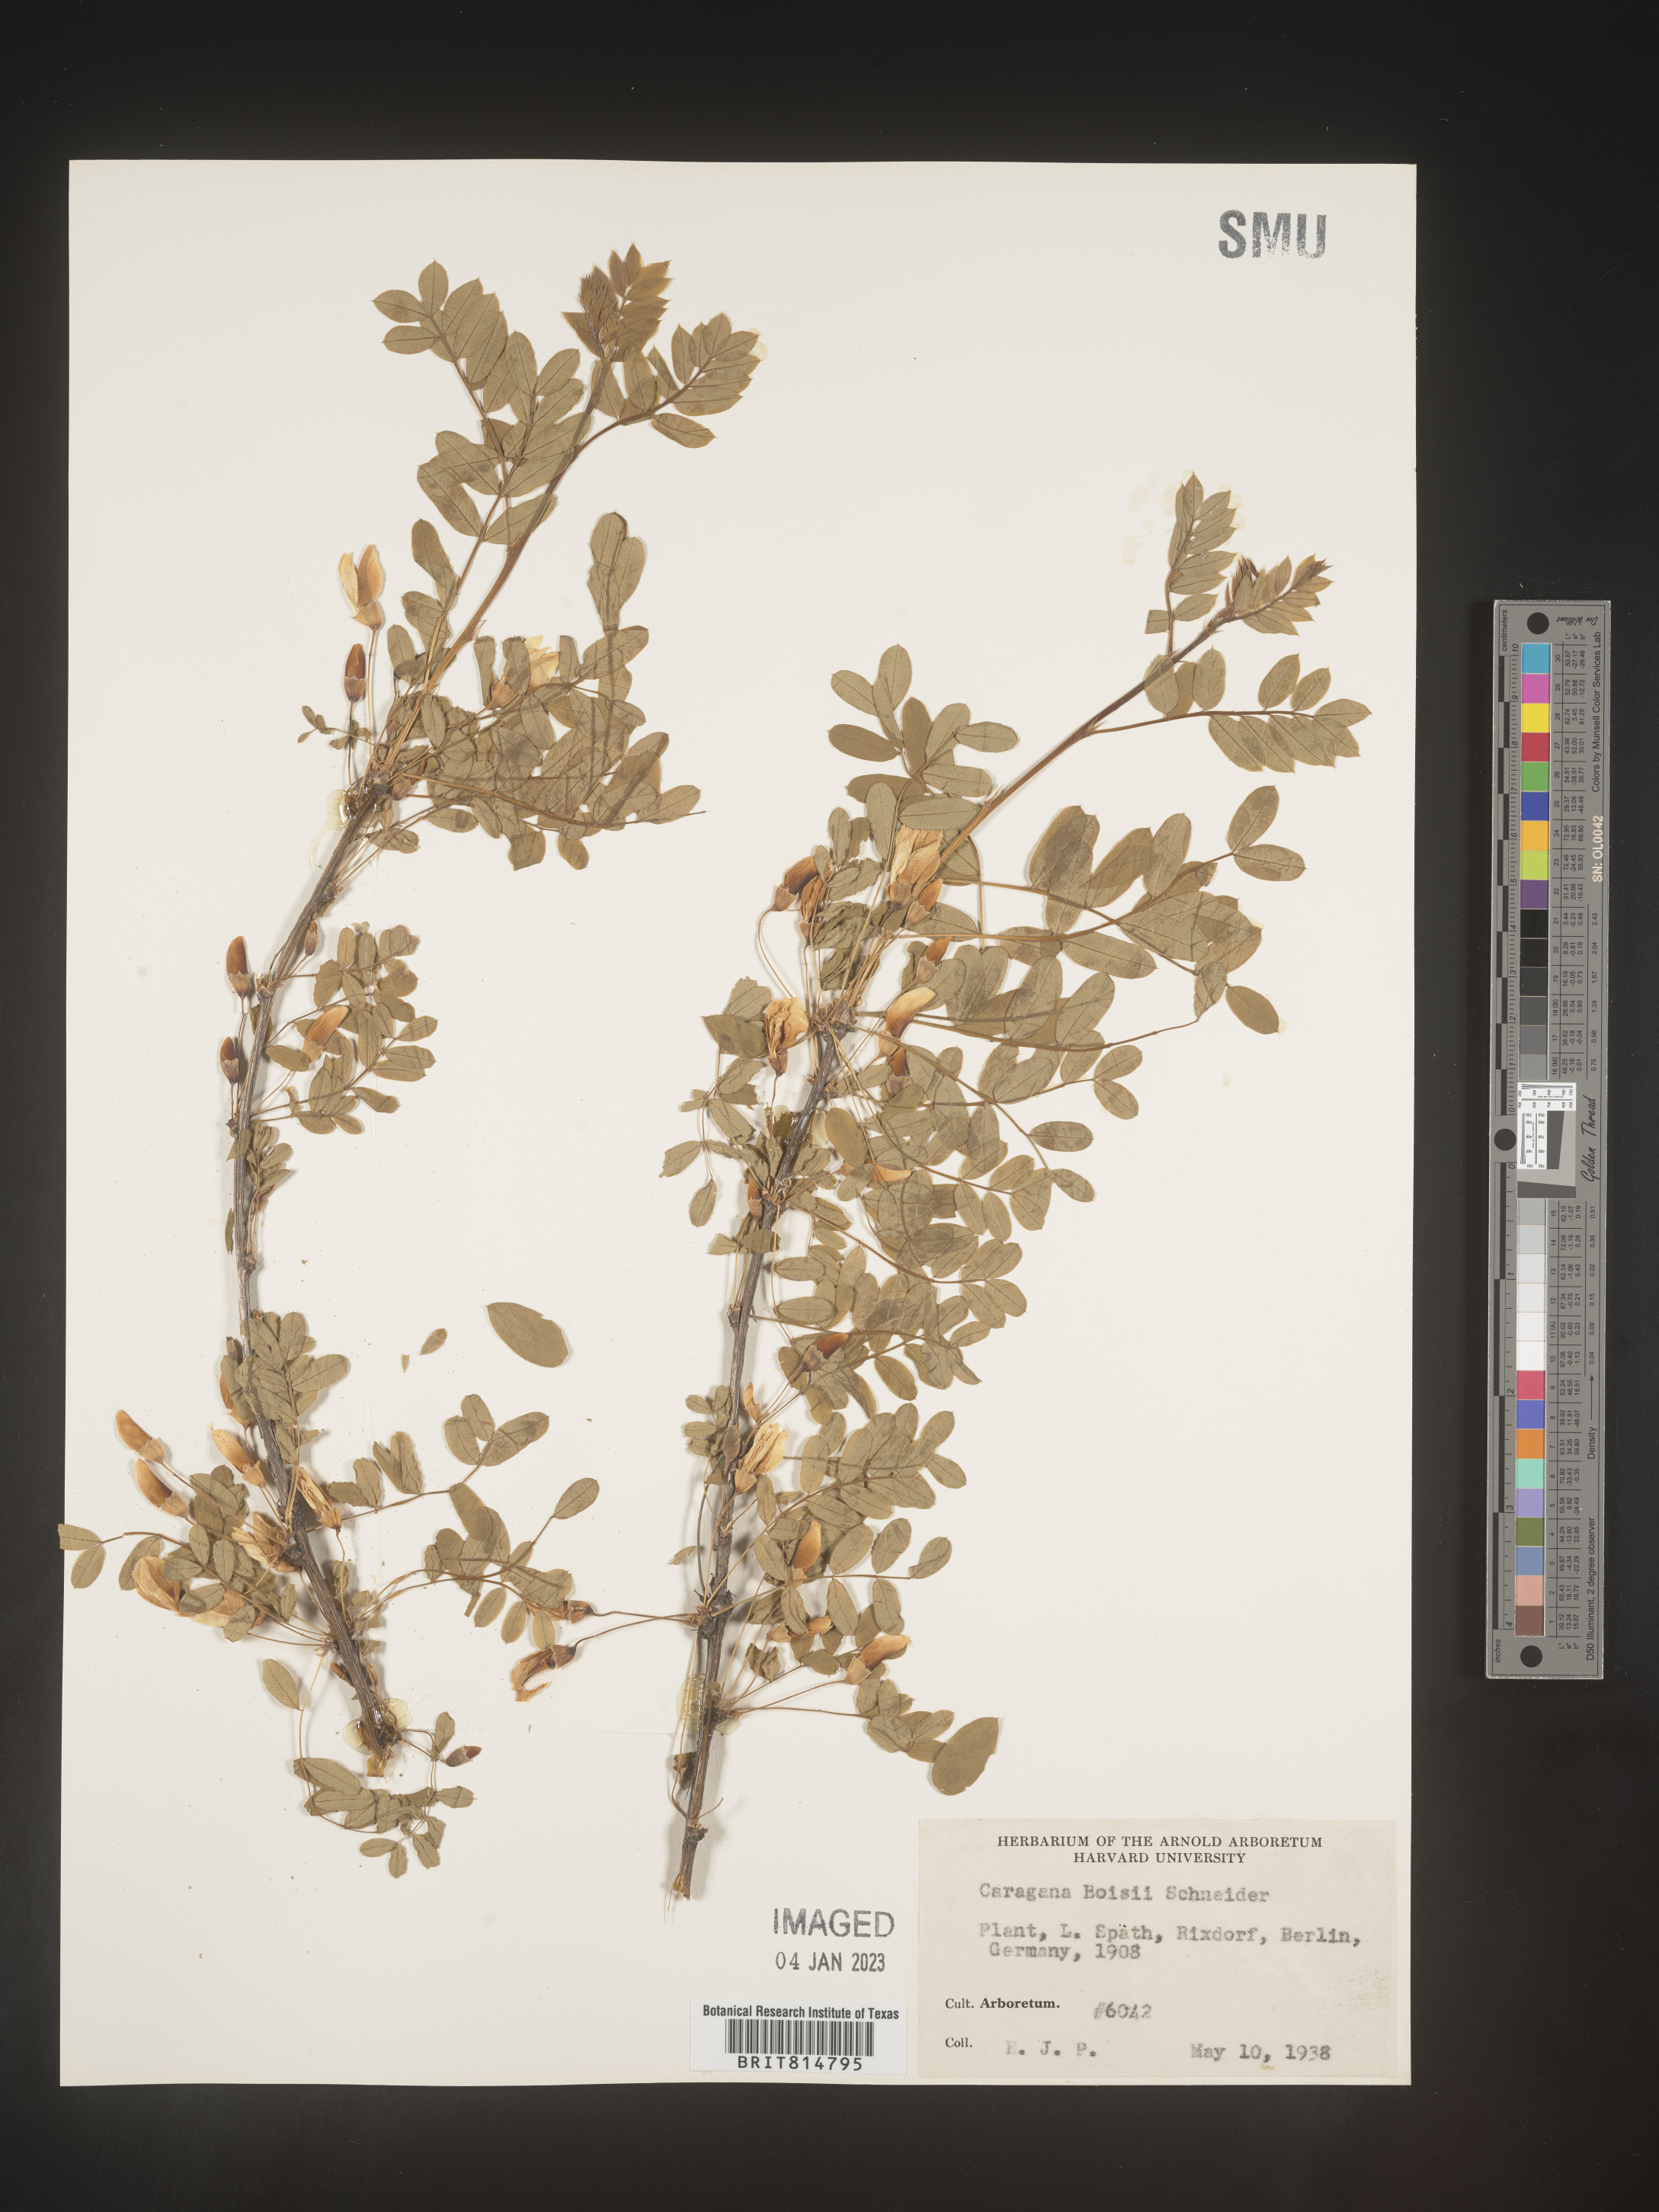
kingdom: Plantae
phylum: Tracheophyta
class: Magnoliopsida
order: Fabales
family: Fabaceae
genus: Caragana
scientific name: Caragana
